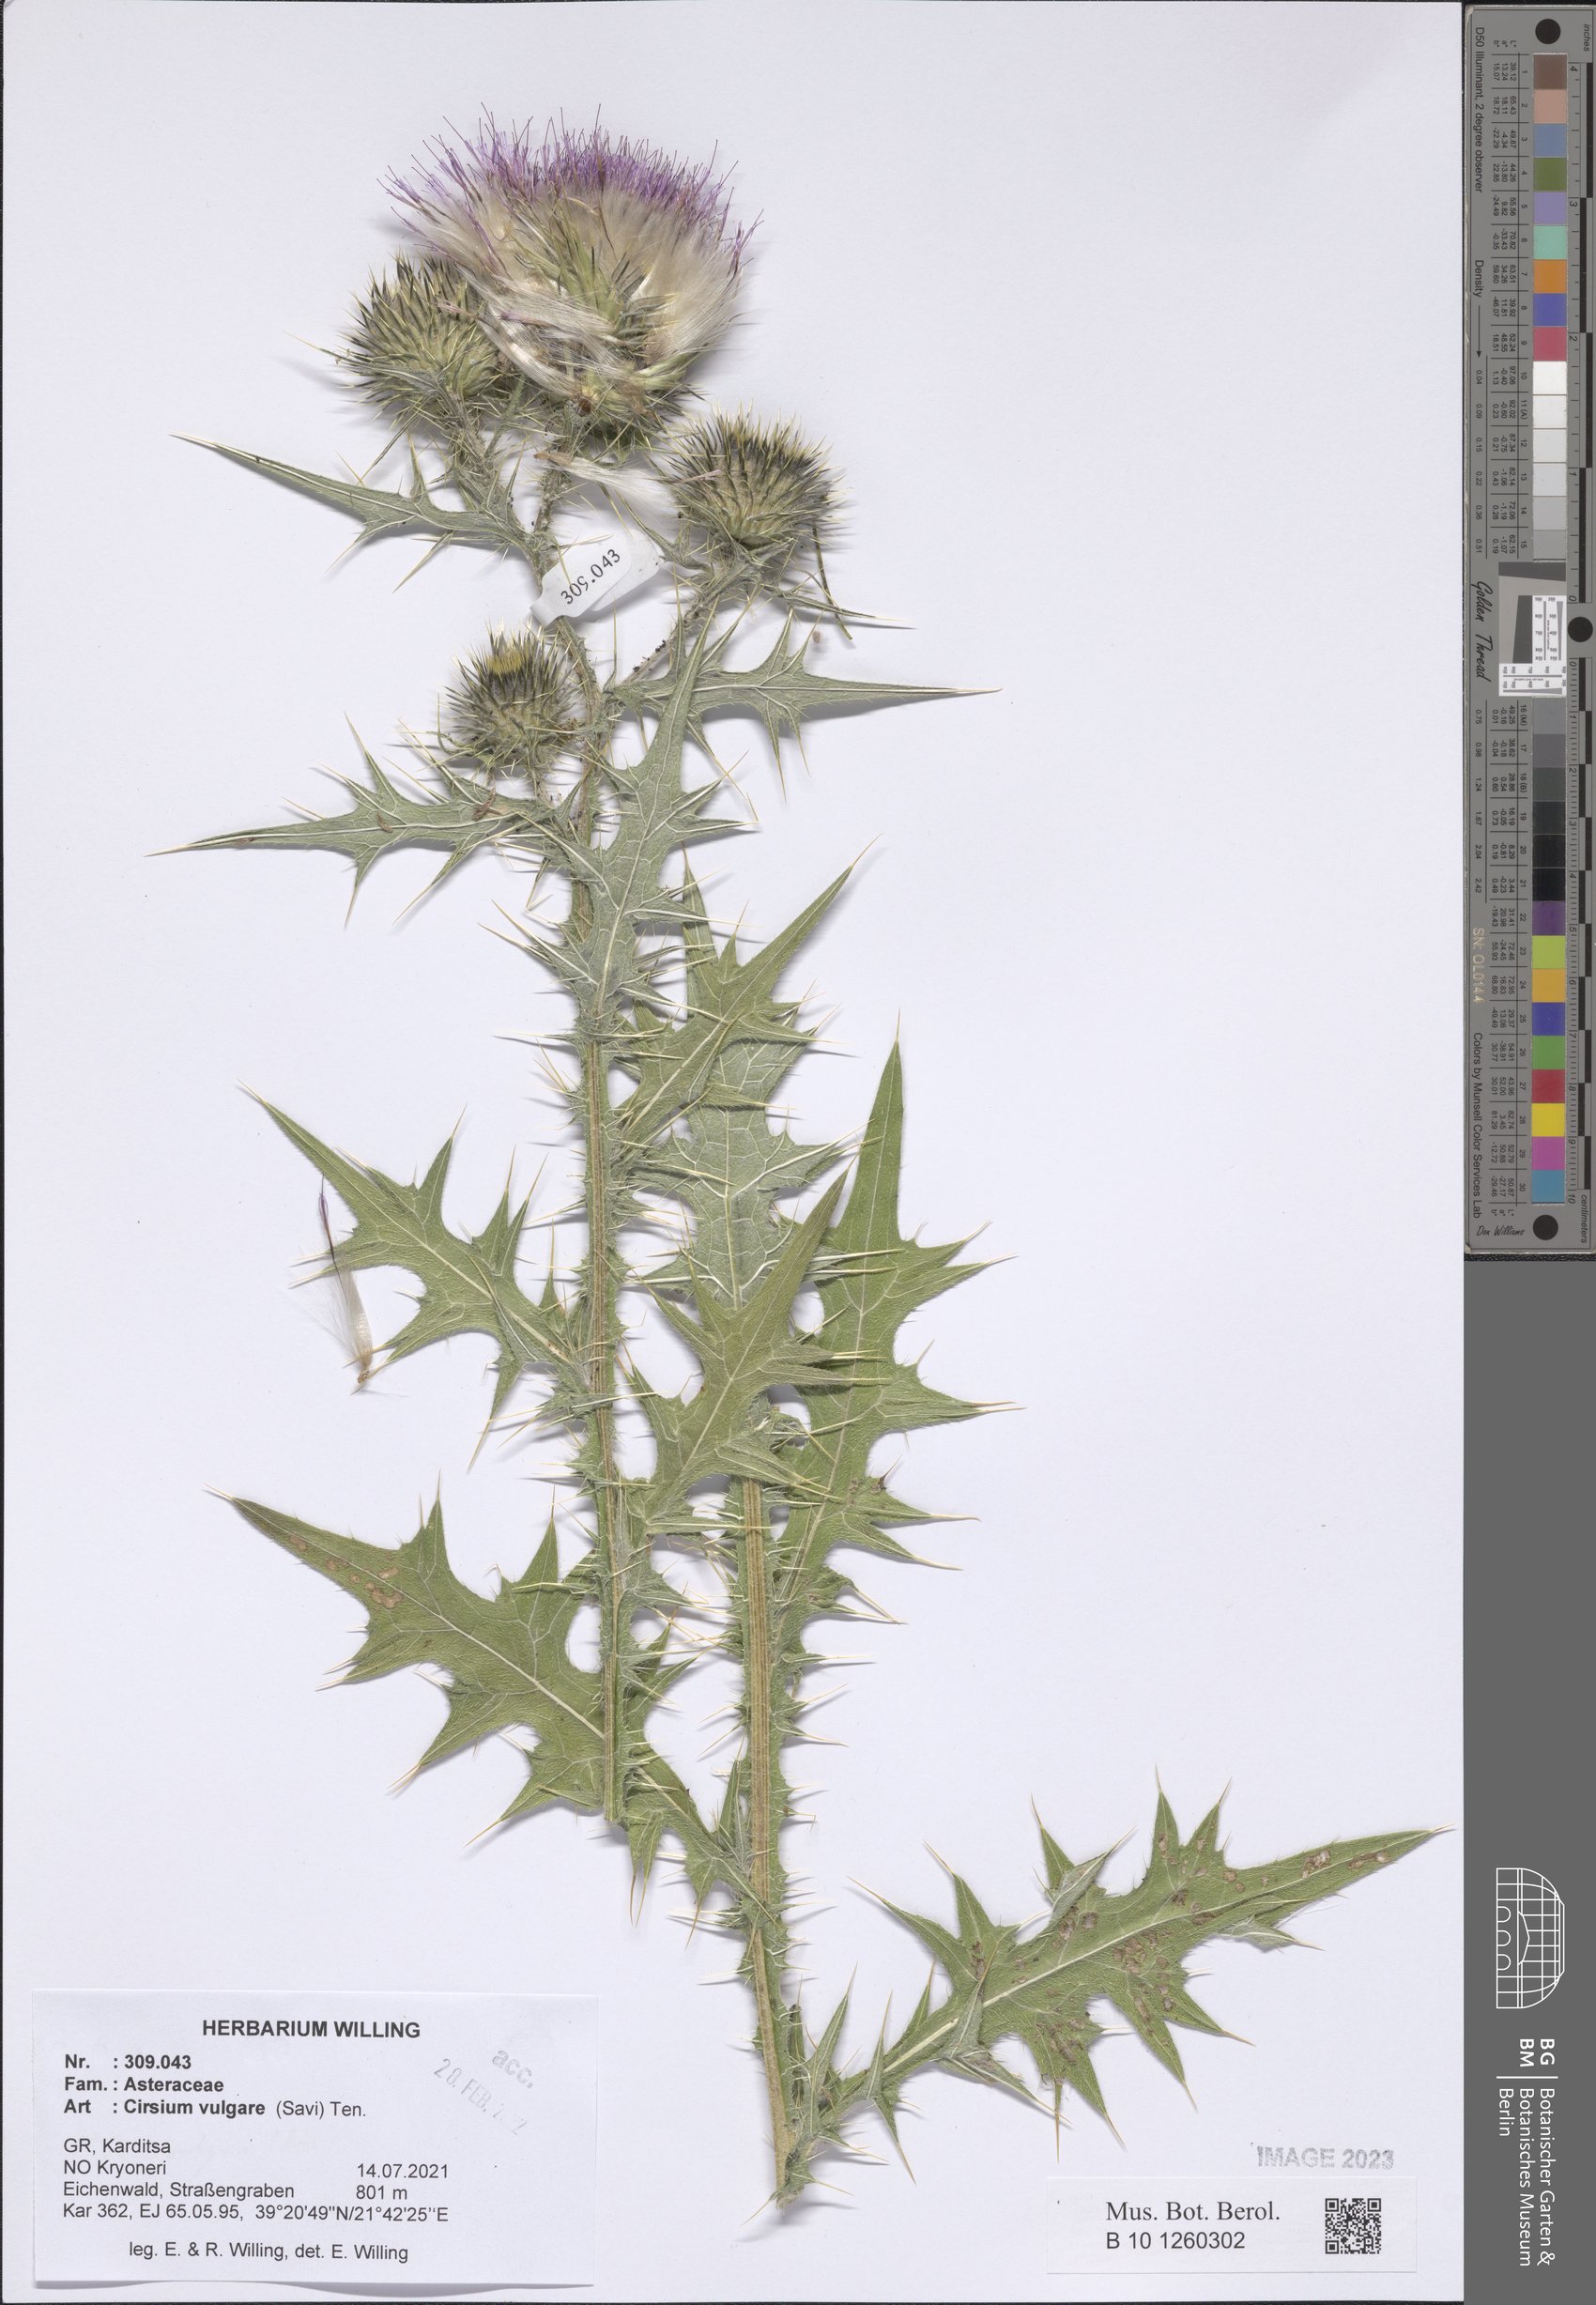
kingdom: Plantae
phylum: Tracheophyta
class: Magnoliopsida
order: Asterales
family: Asteraceae
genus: Cirsium
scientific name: Cirsium vulgare
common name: Bull thistle
